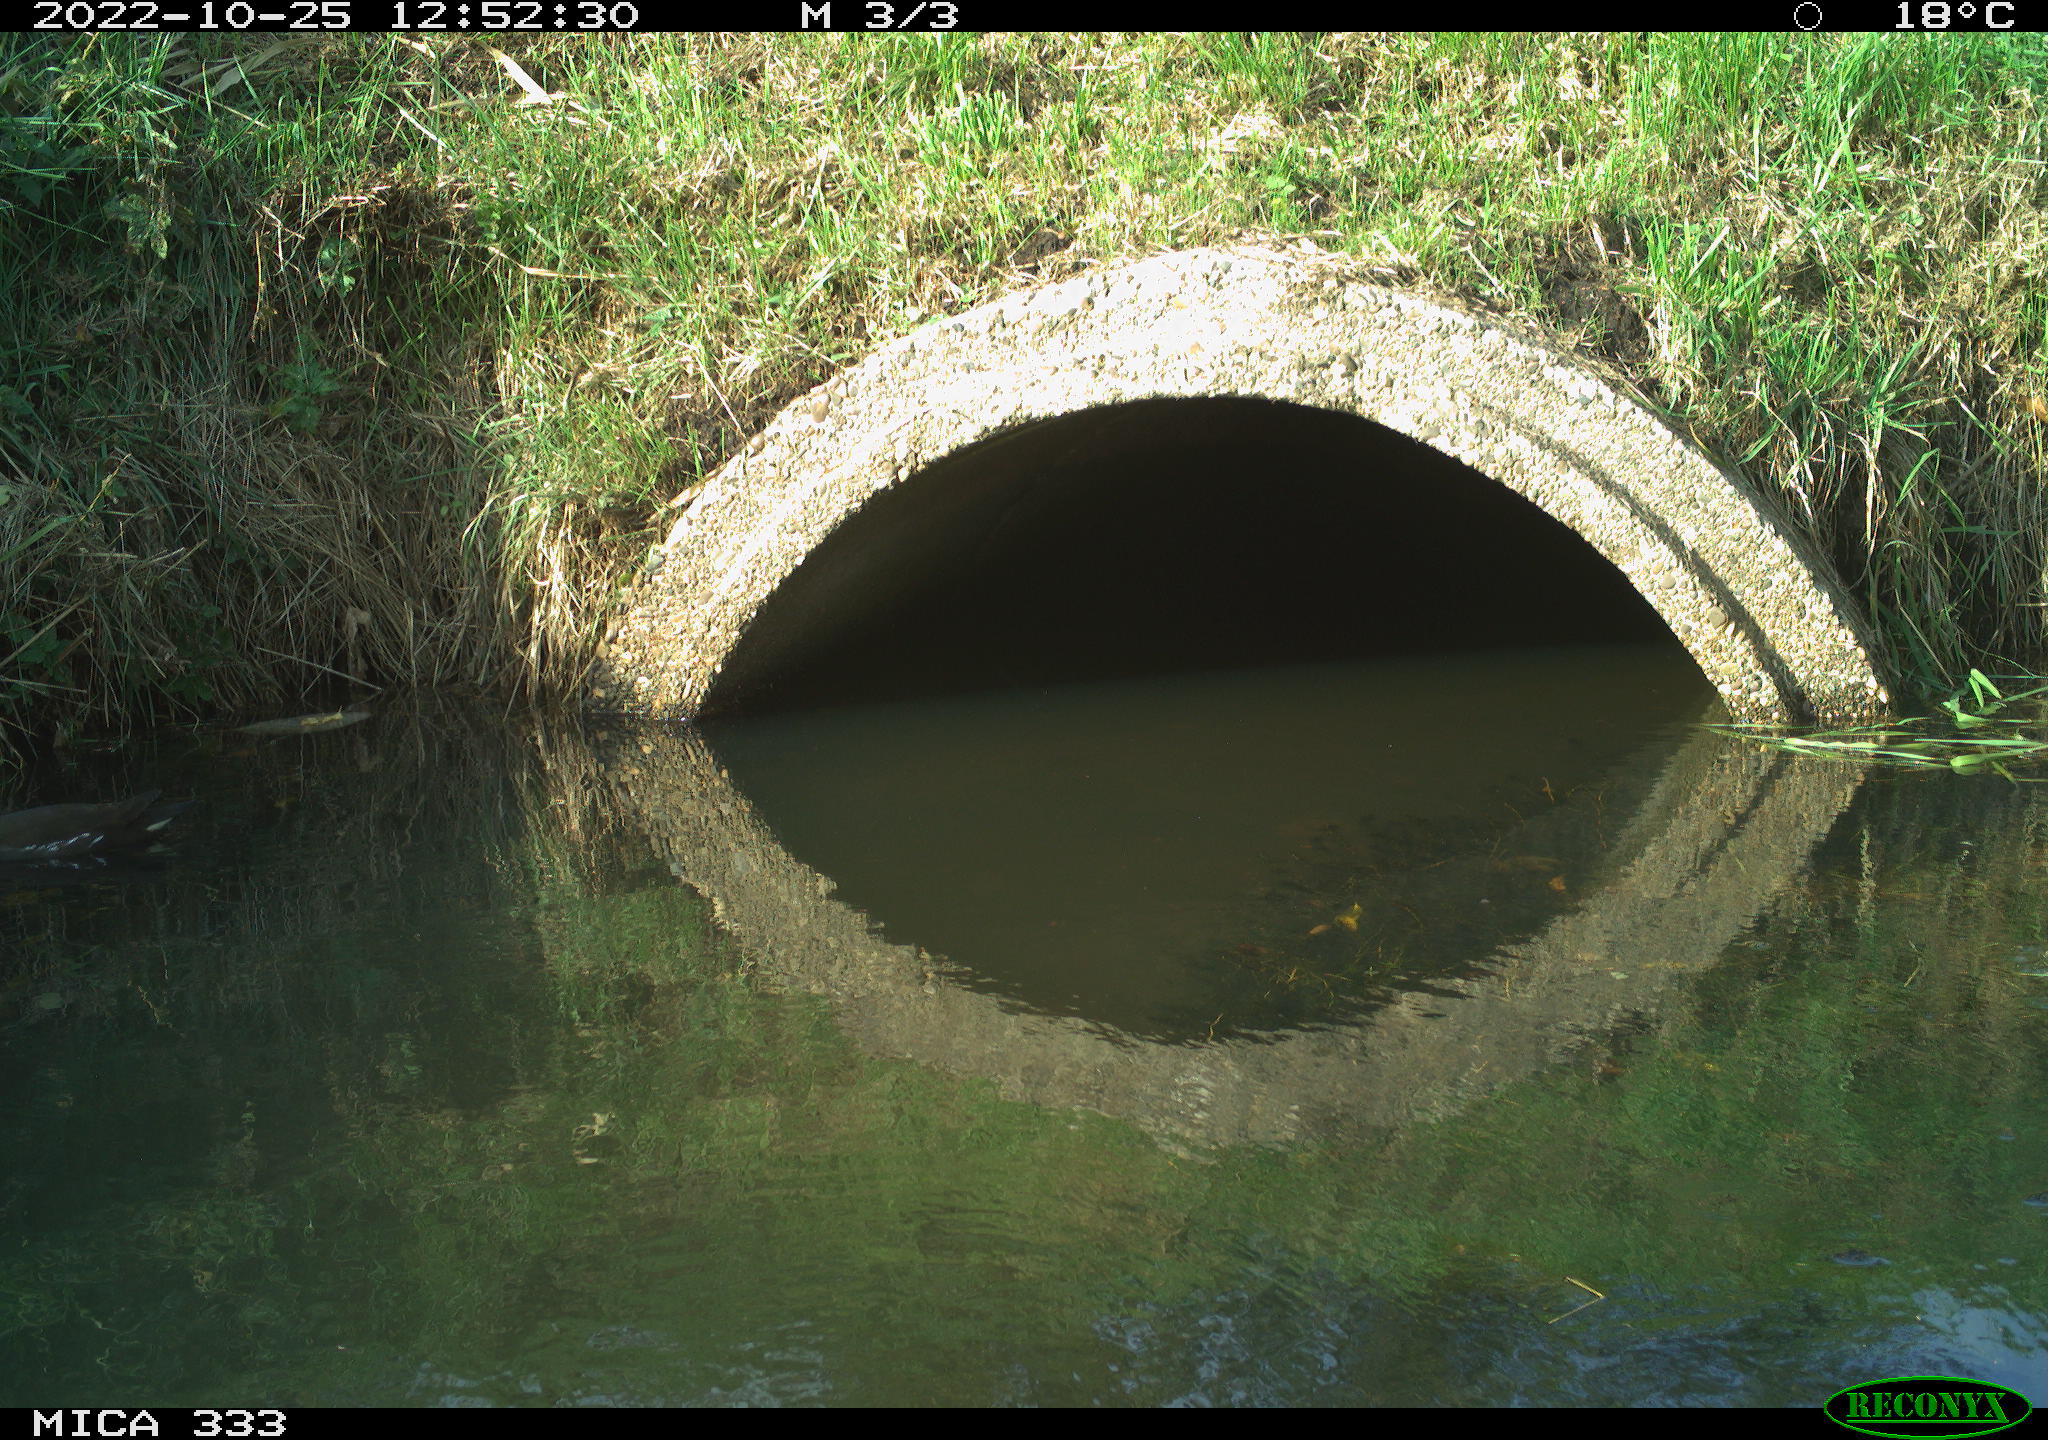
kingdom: Animalia
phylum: Chordata
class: Aves
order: Gruiformes
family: Rallidae
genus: Gallinula
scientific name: Gallinula chloropus
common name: Common moorhen
